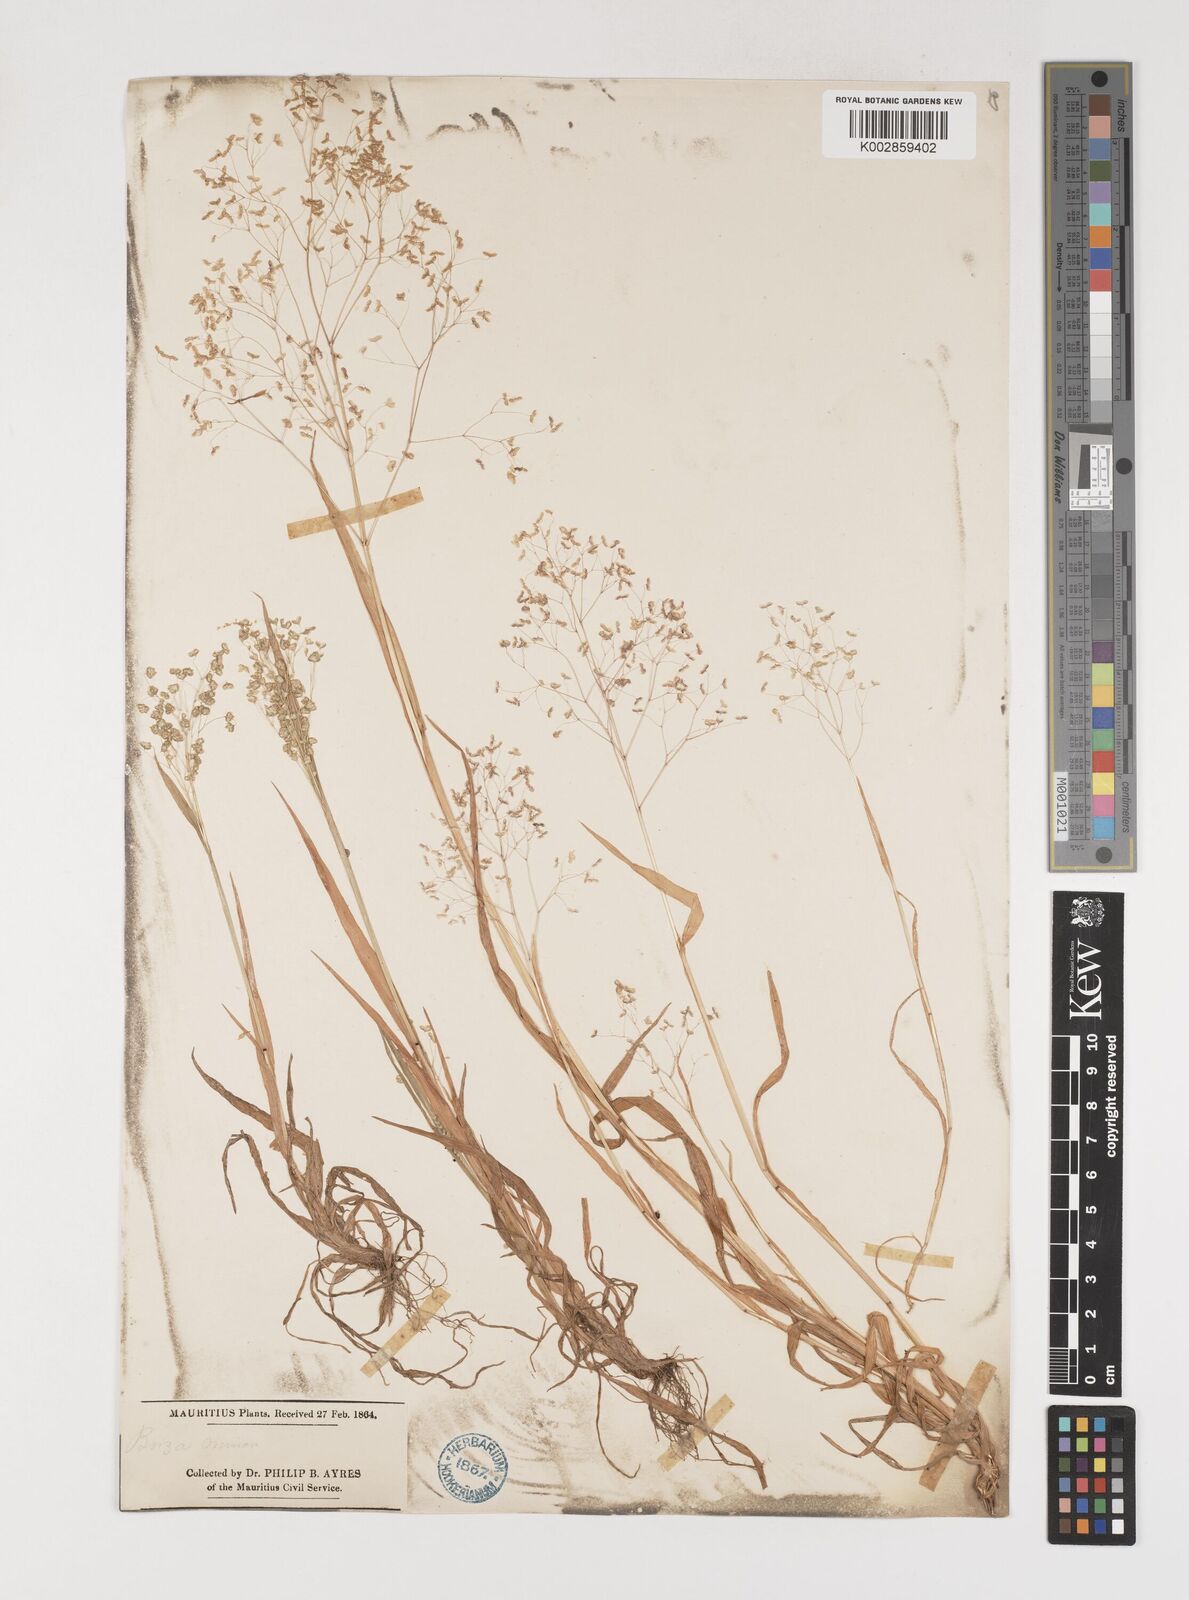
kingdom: Plantae
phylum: Tracheophyta
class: Liliopsida
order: Poales
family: Poaceae
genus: Briza
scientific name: Briza minor
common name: Lesser quaking-grass
